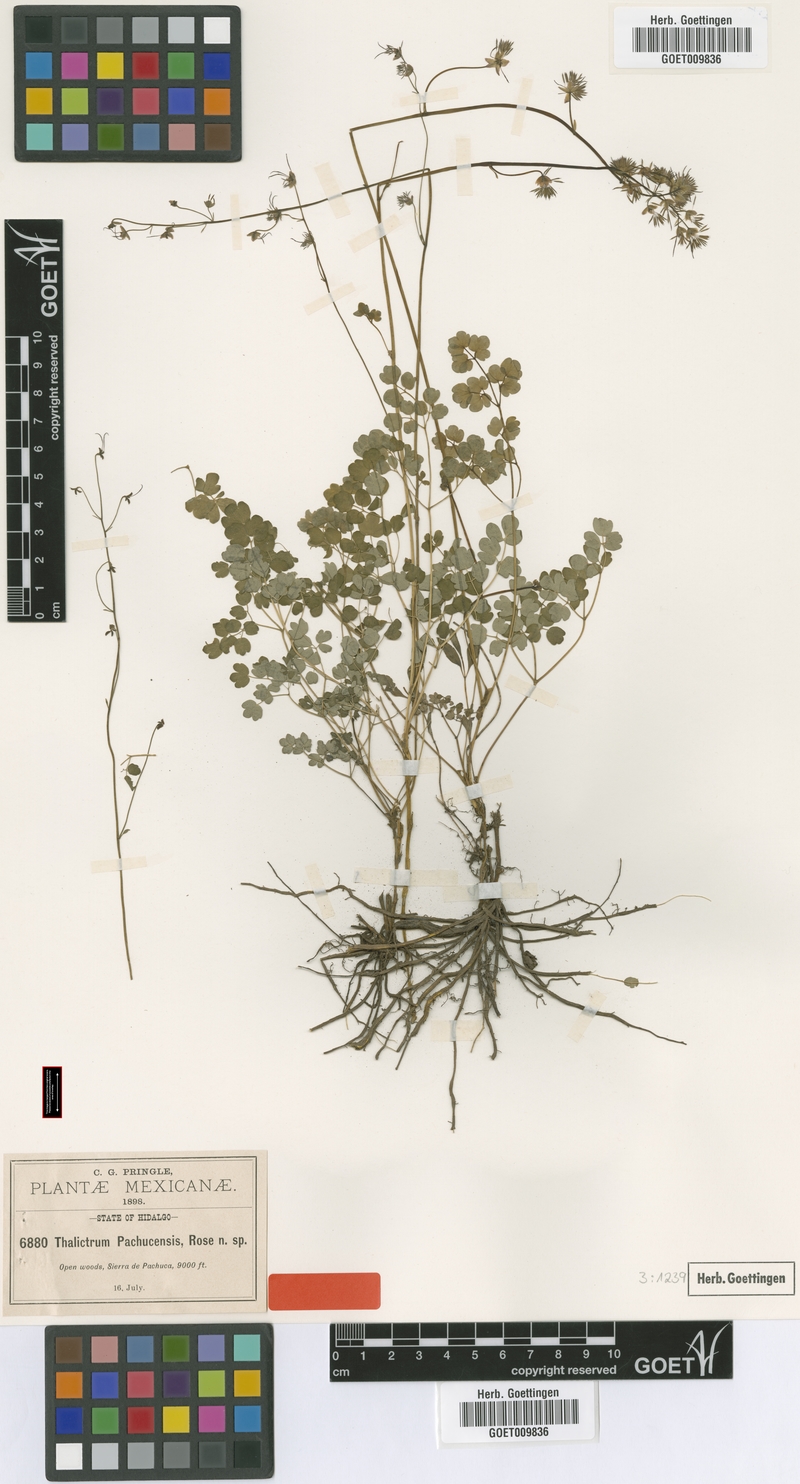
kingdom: Plantae
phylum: Tracheophyta
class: Magnoliopsida
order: Ranunculales
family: Ranunculaceae
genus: Thalictrum
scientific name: Thalictrum pachucense
